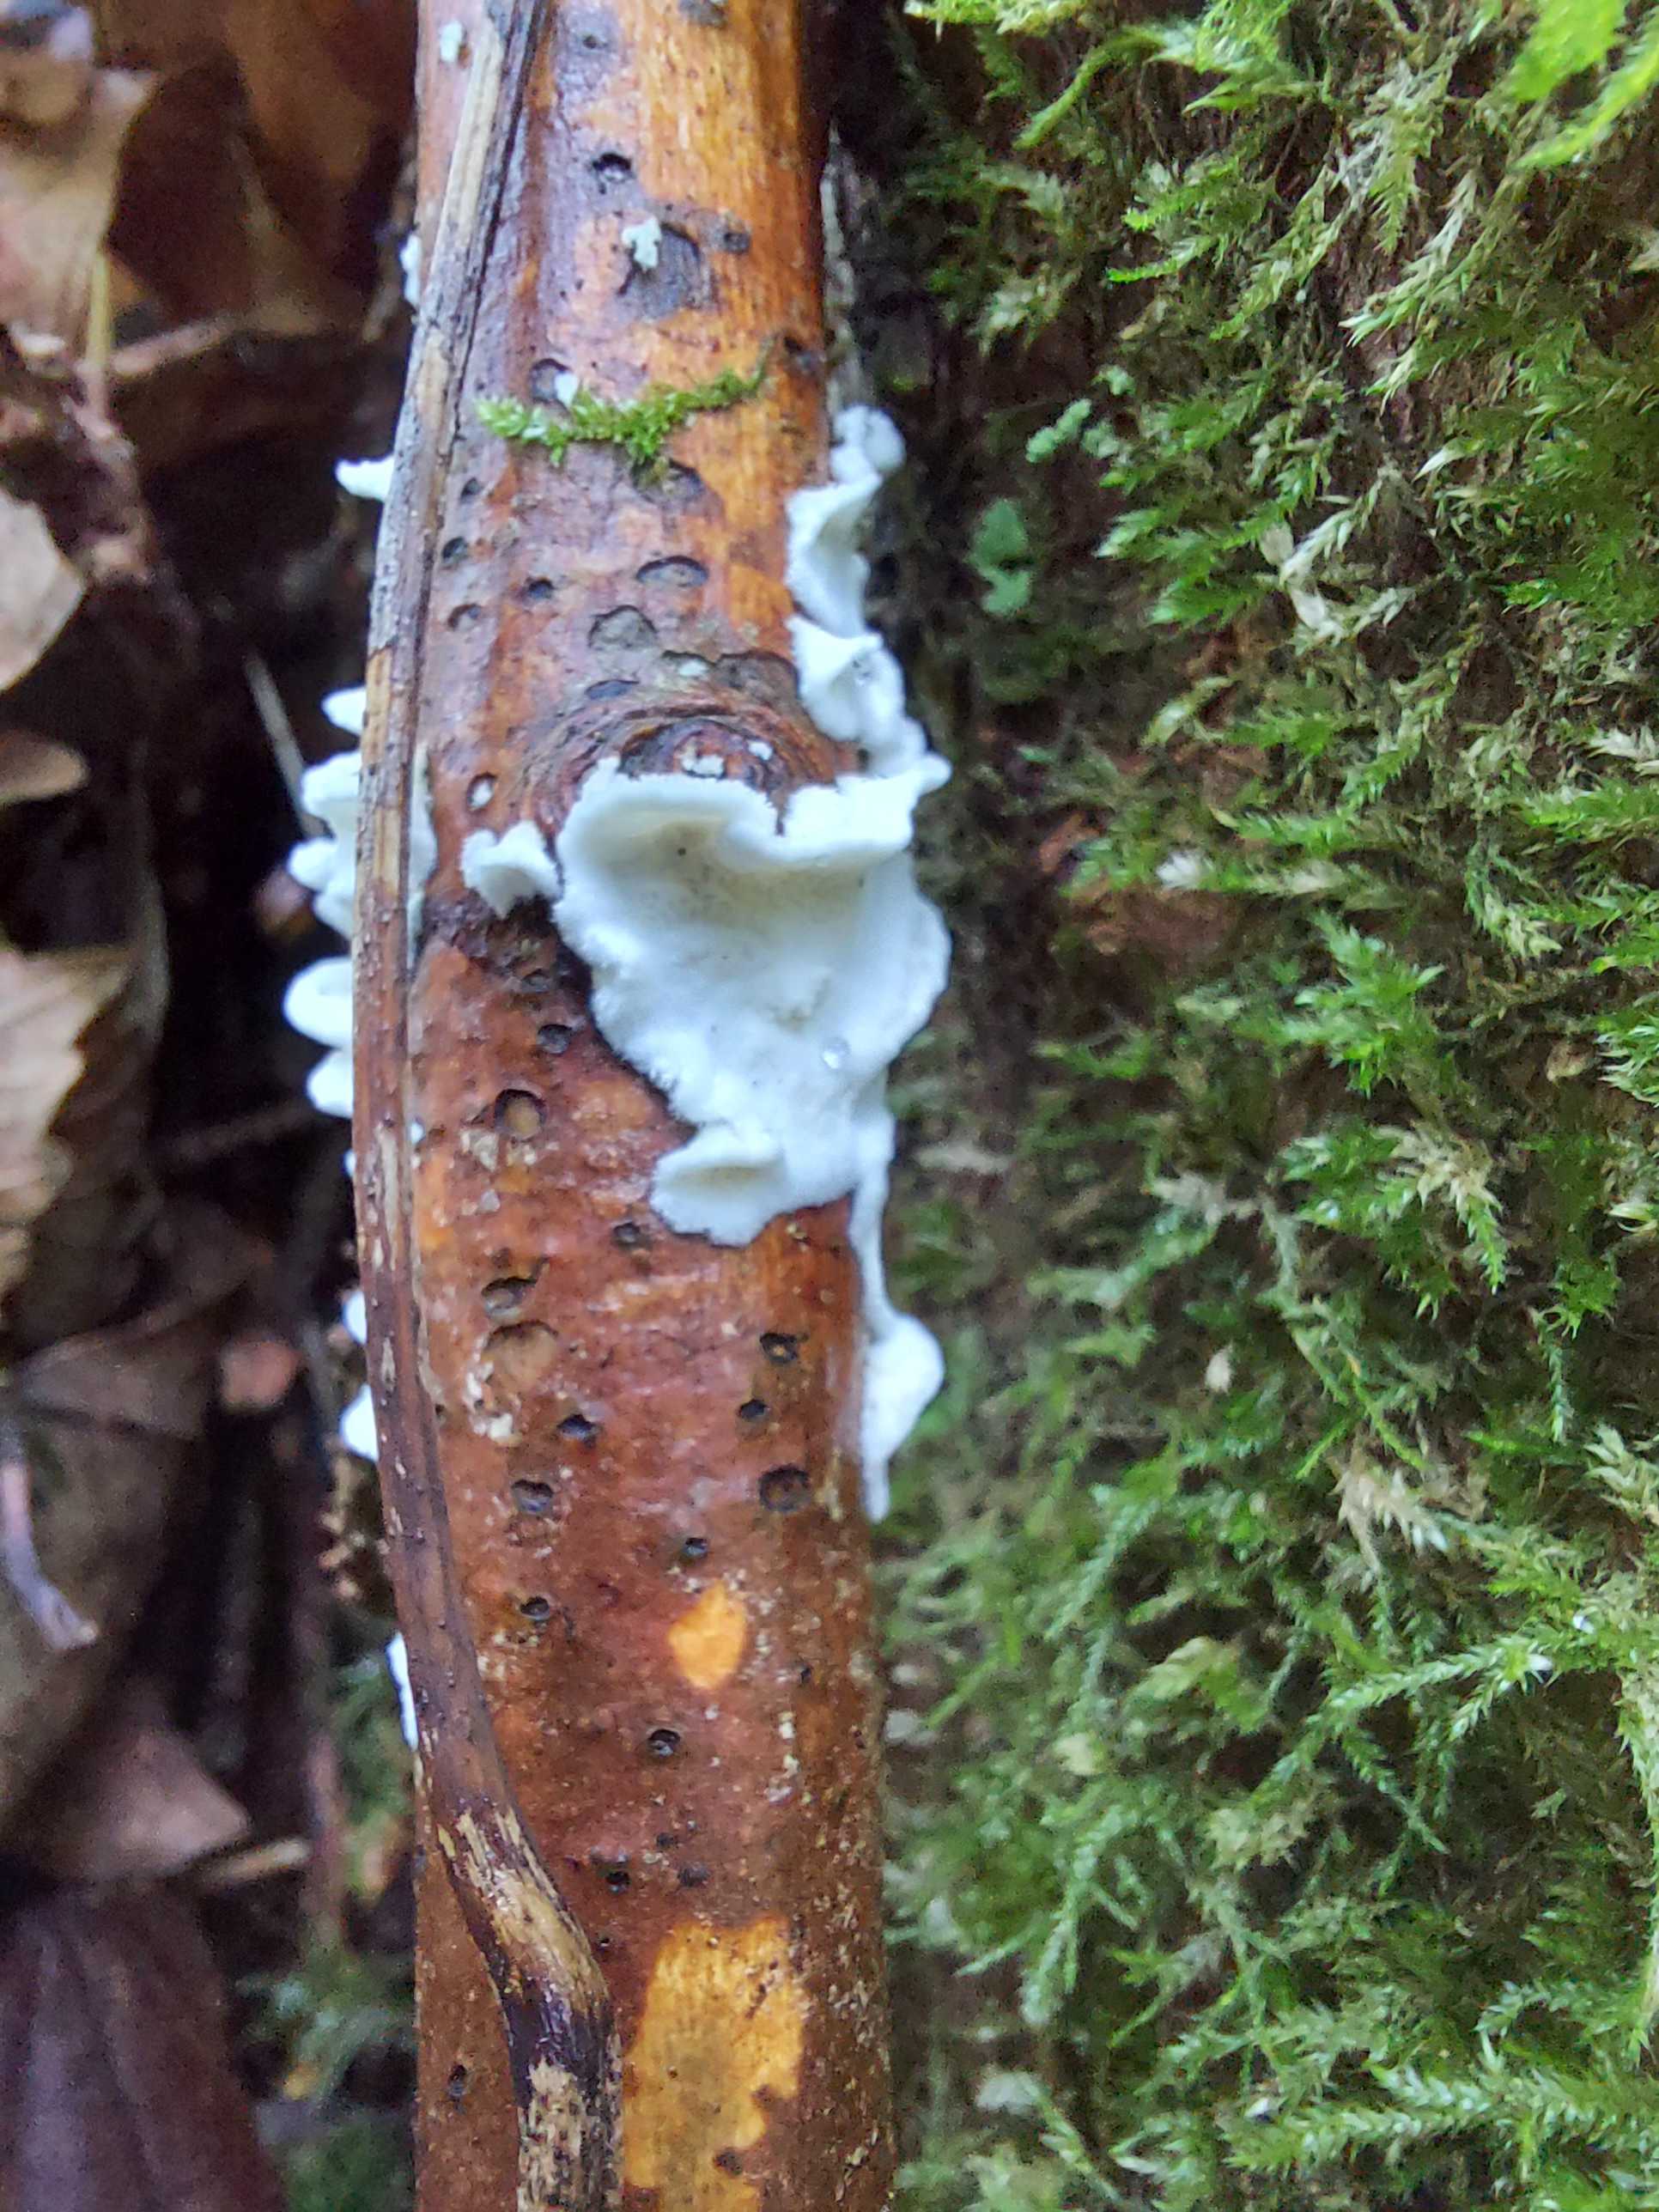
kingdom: Fungi
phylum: Basidiomycota
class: Agaricomycetes
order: Polyporales
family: Irpicaceae
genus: Byssomerulius
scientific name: Byssomerulius corium
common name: læder-åresvamp
